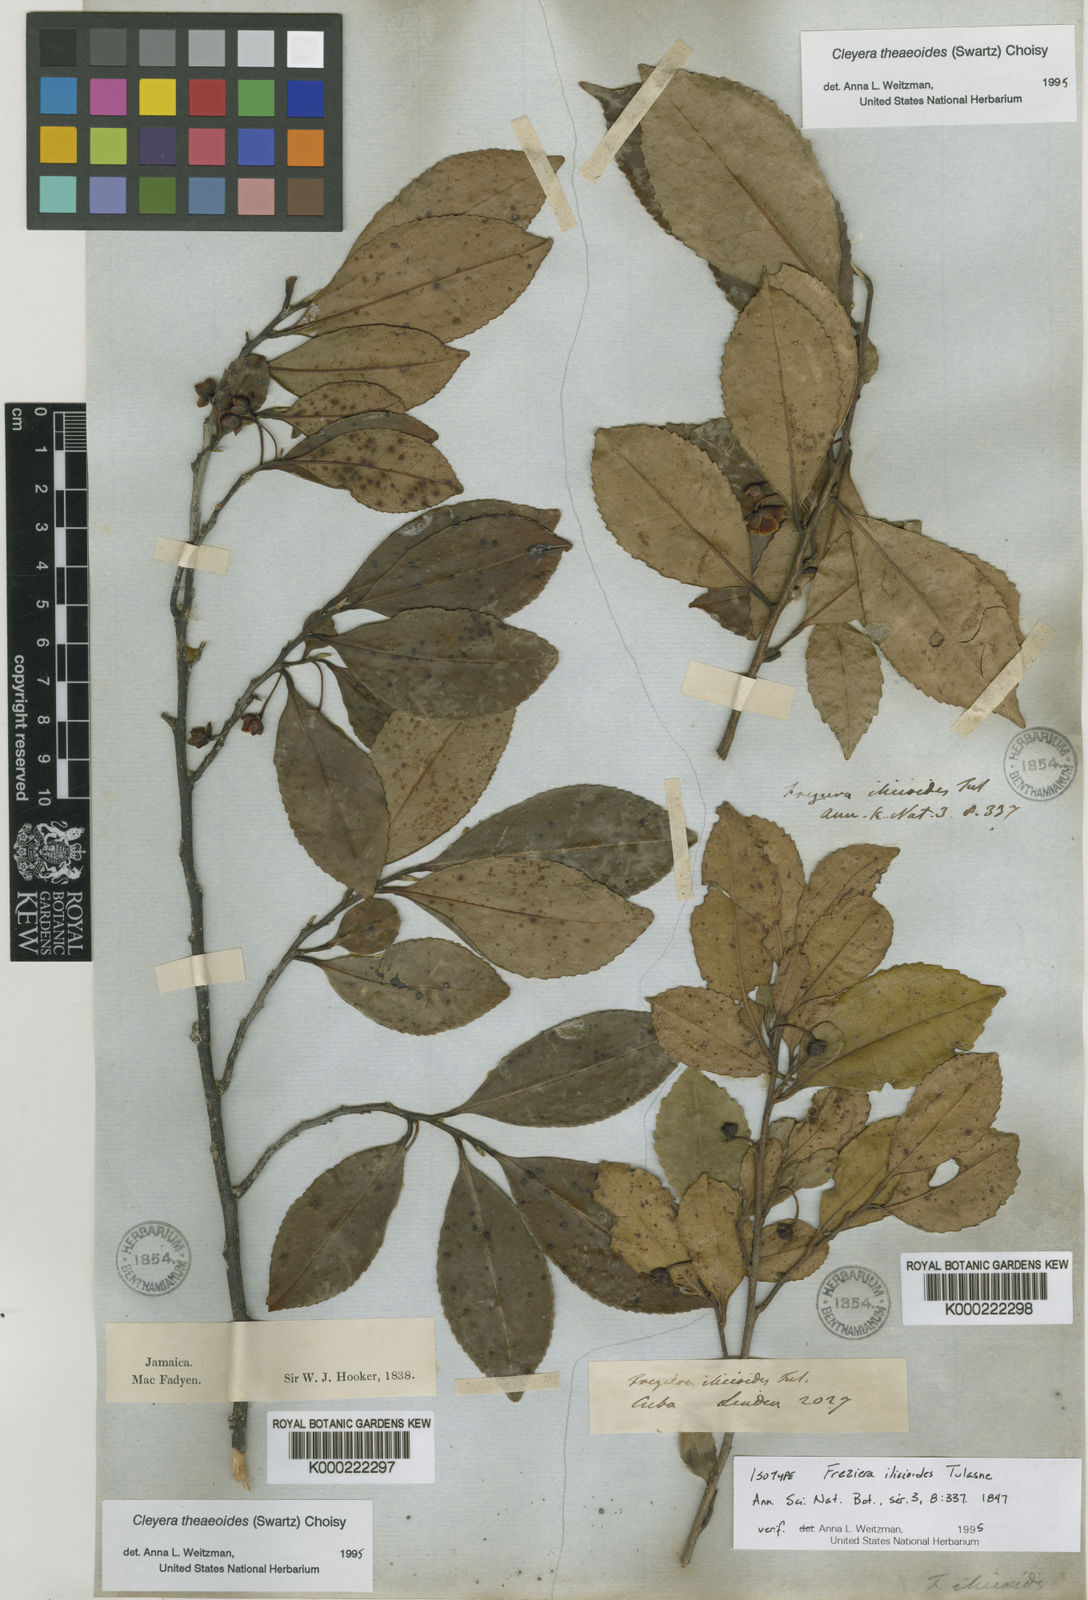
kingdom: Plantae
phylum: Tracheophyta
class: Magnoliopsida
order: Ericales
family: Pentaphylacaceae
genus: Cleyera
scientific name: Cleyera
